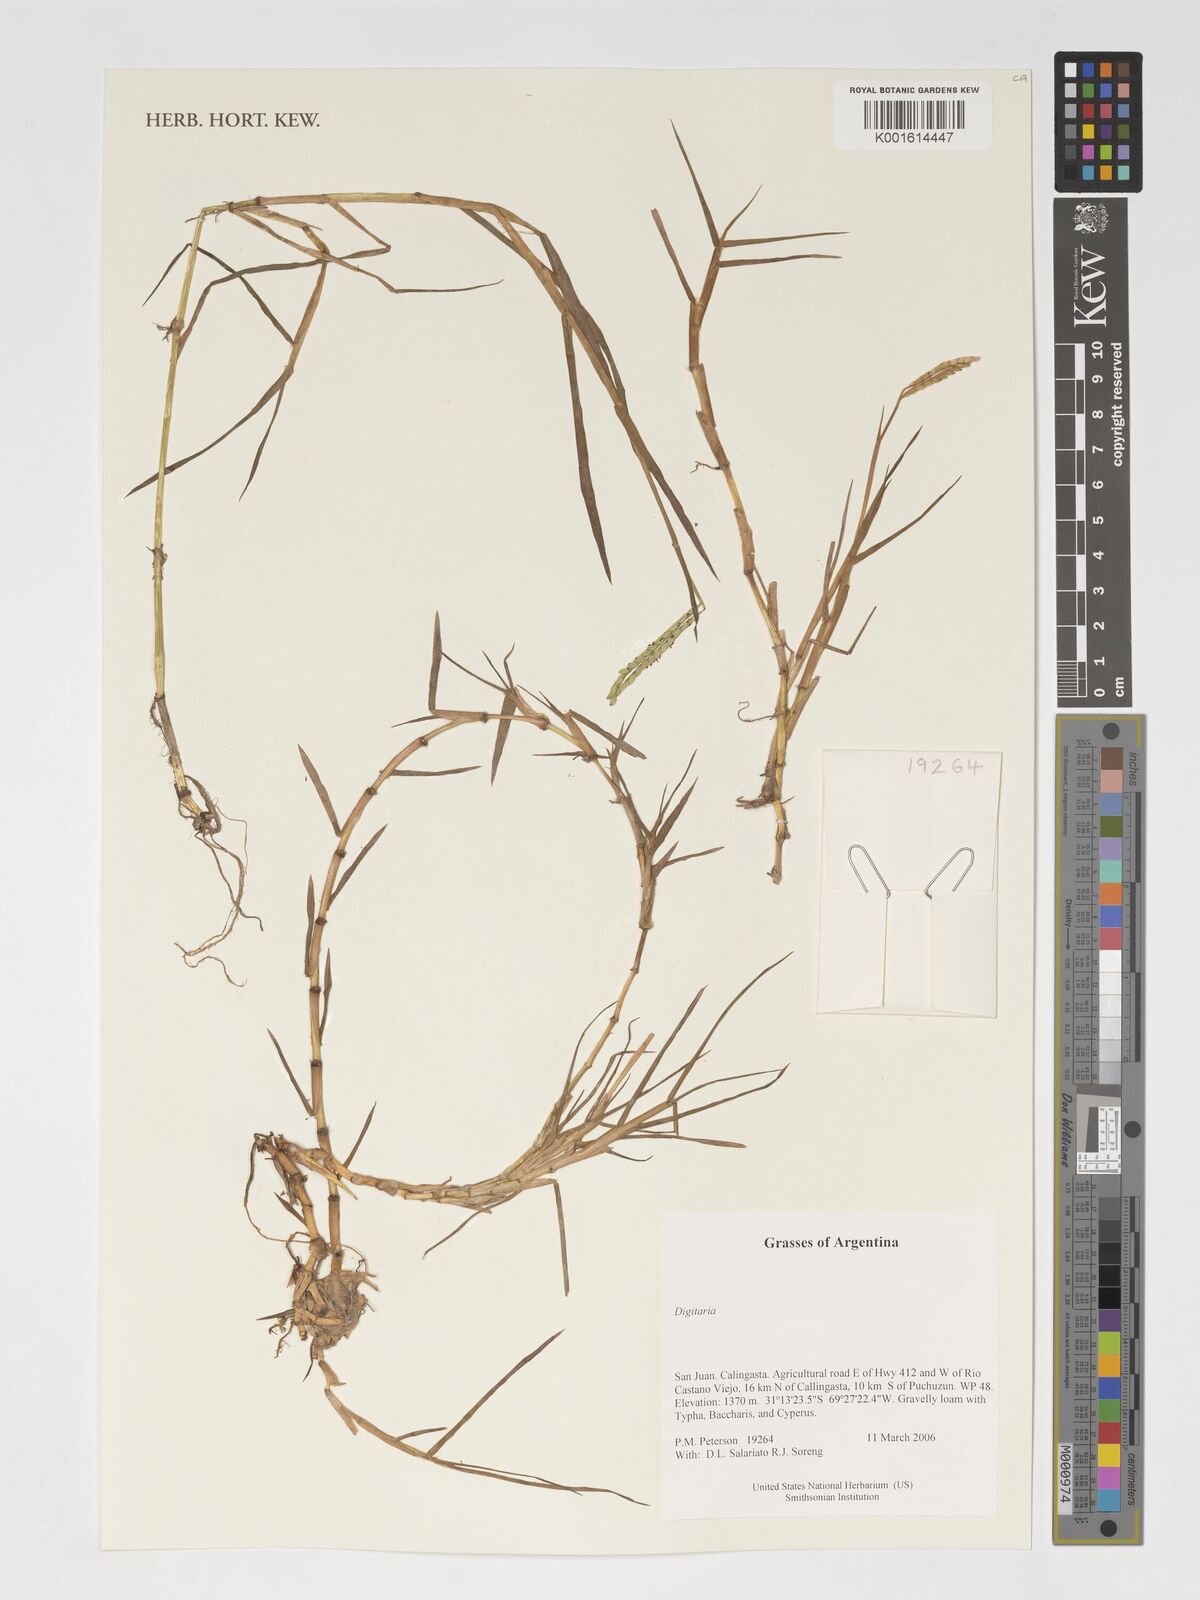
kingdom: Plantae
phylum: Tracheophyta
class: Liliopsida
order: Poales
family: Poaceae
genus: Digitaria
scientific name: Digitaria
